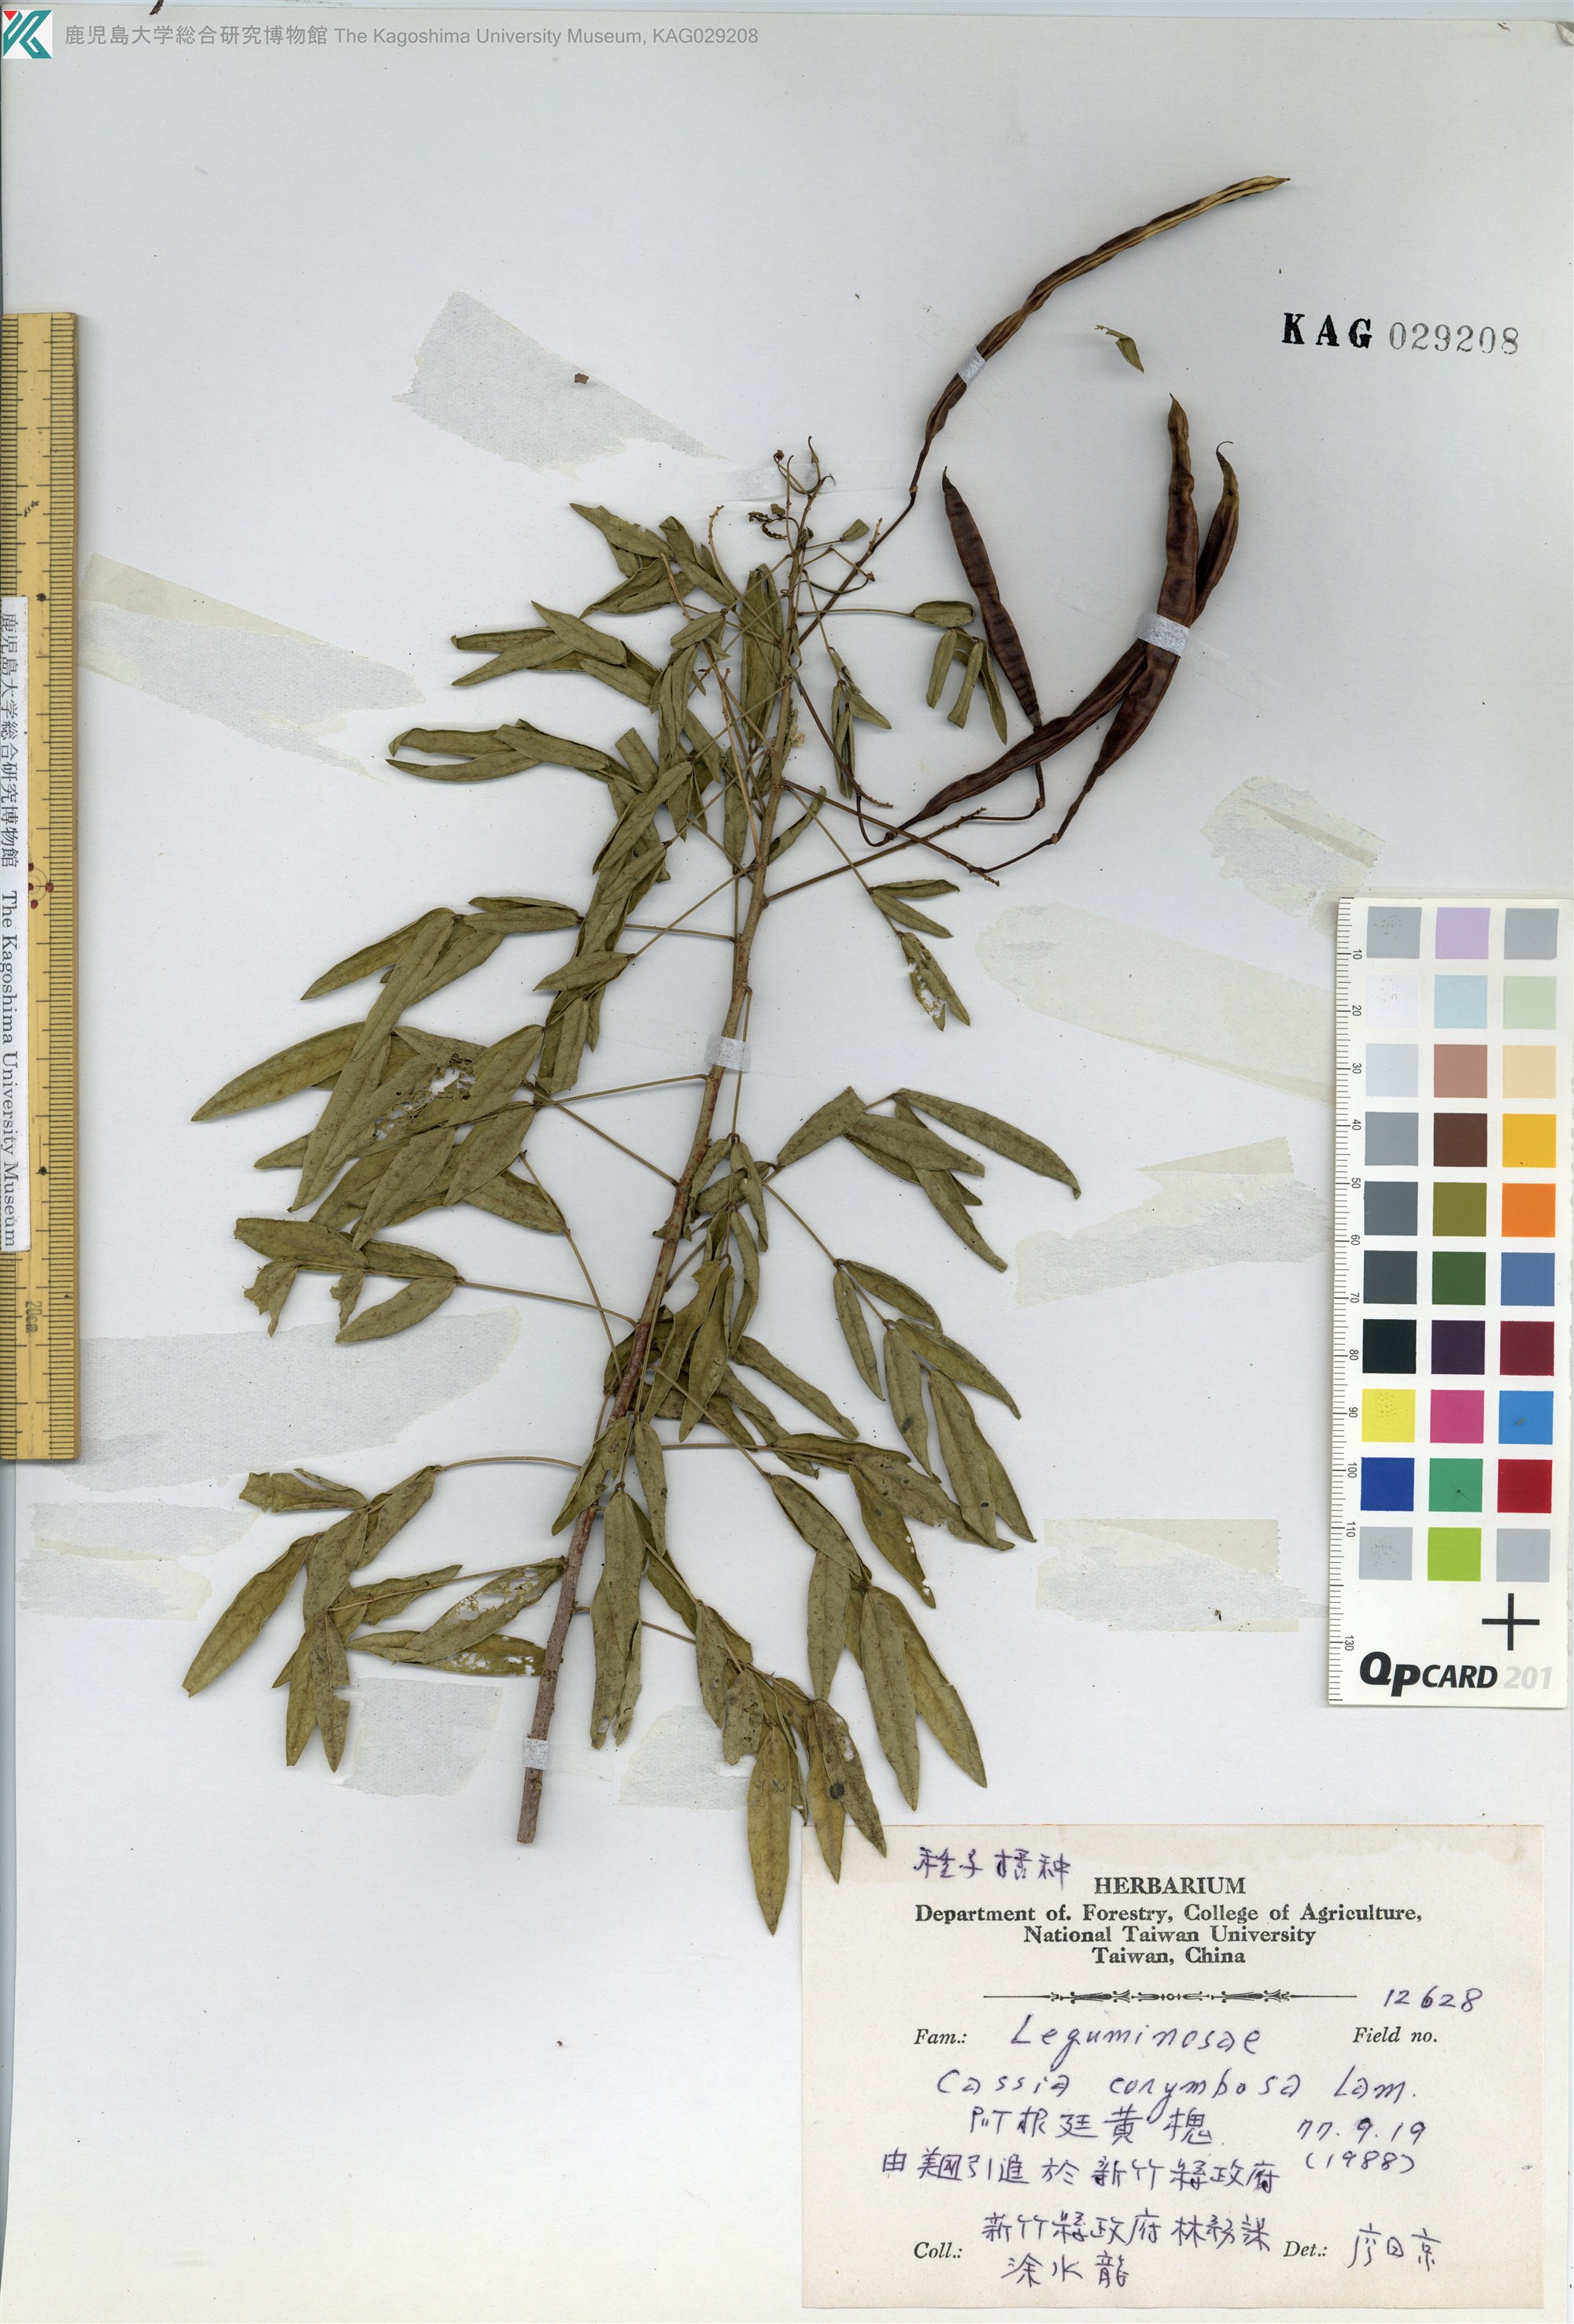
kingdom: Plantae
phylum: Tracheophyta
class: Magnoliopsida
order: Fabales
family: Fabaceae
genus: Senna
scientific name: Senna corymbosa
